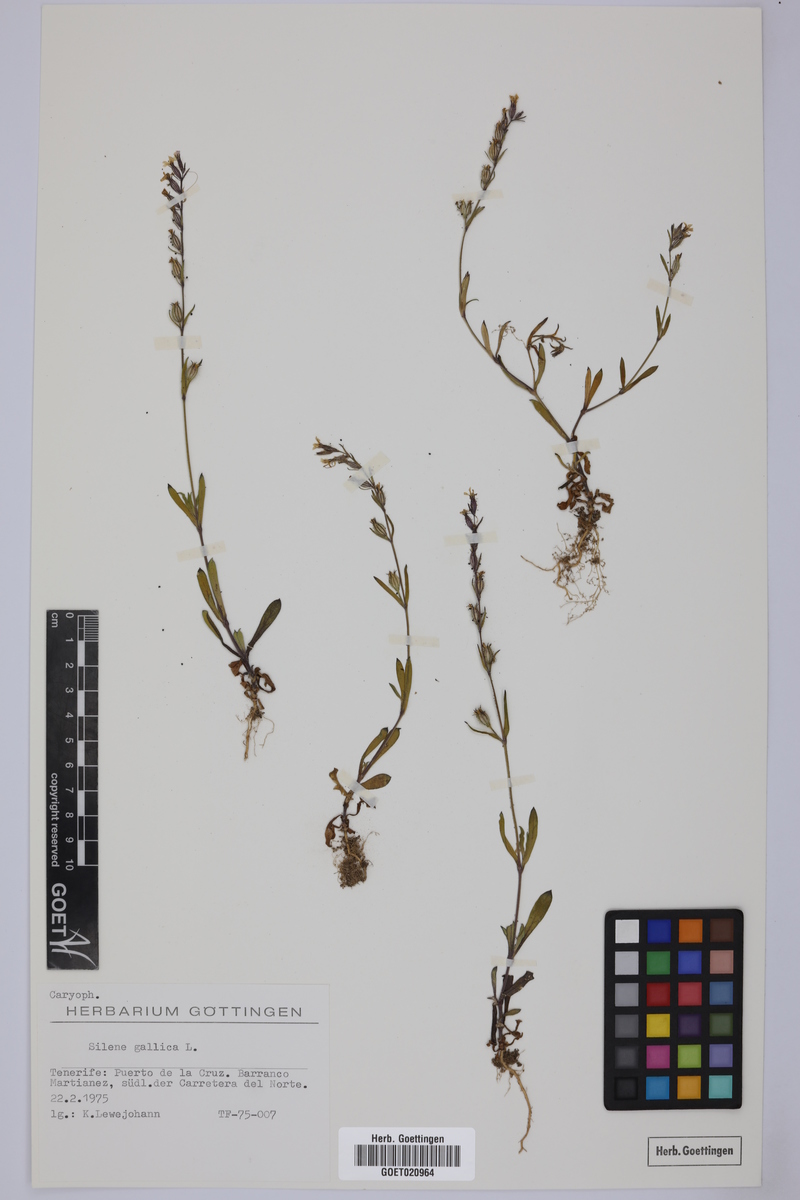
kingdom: Plantae
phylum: Tracheophyta
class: Magnoliopsida
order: Caryophyllales
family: Caryophyllaceae
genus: Silene
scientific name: Silene gallica
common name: Small-flowered catchfly
